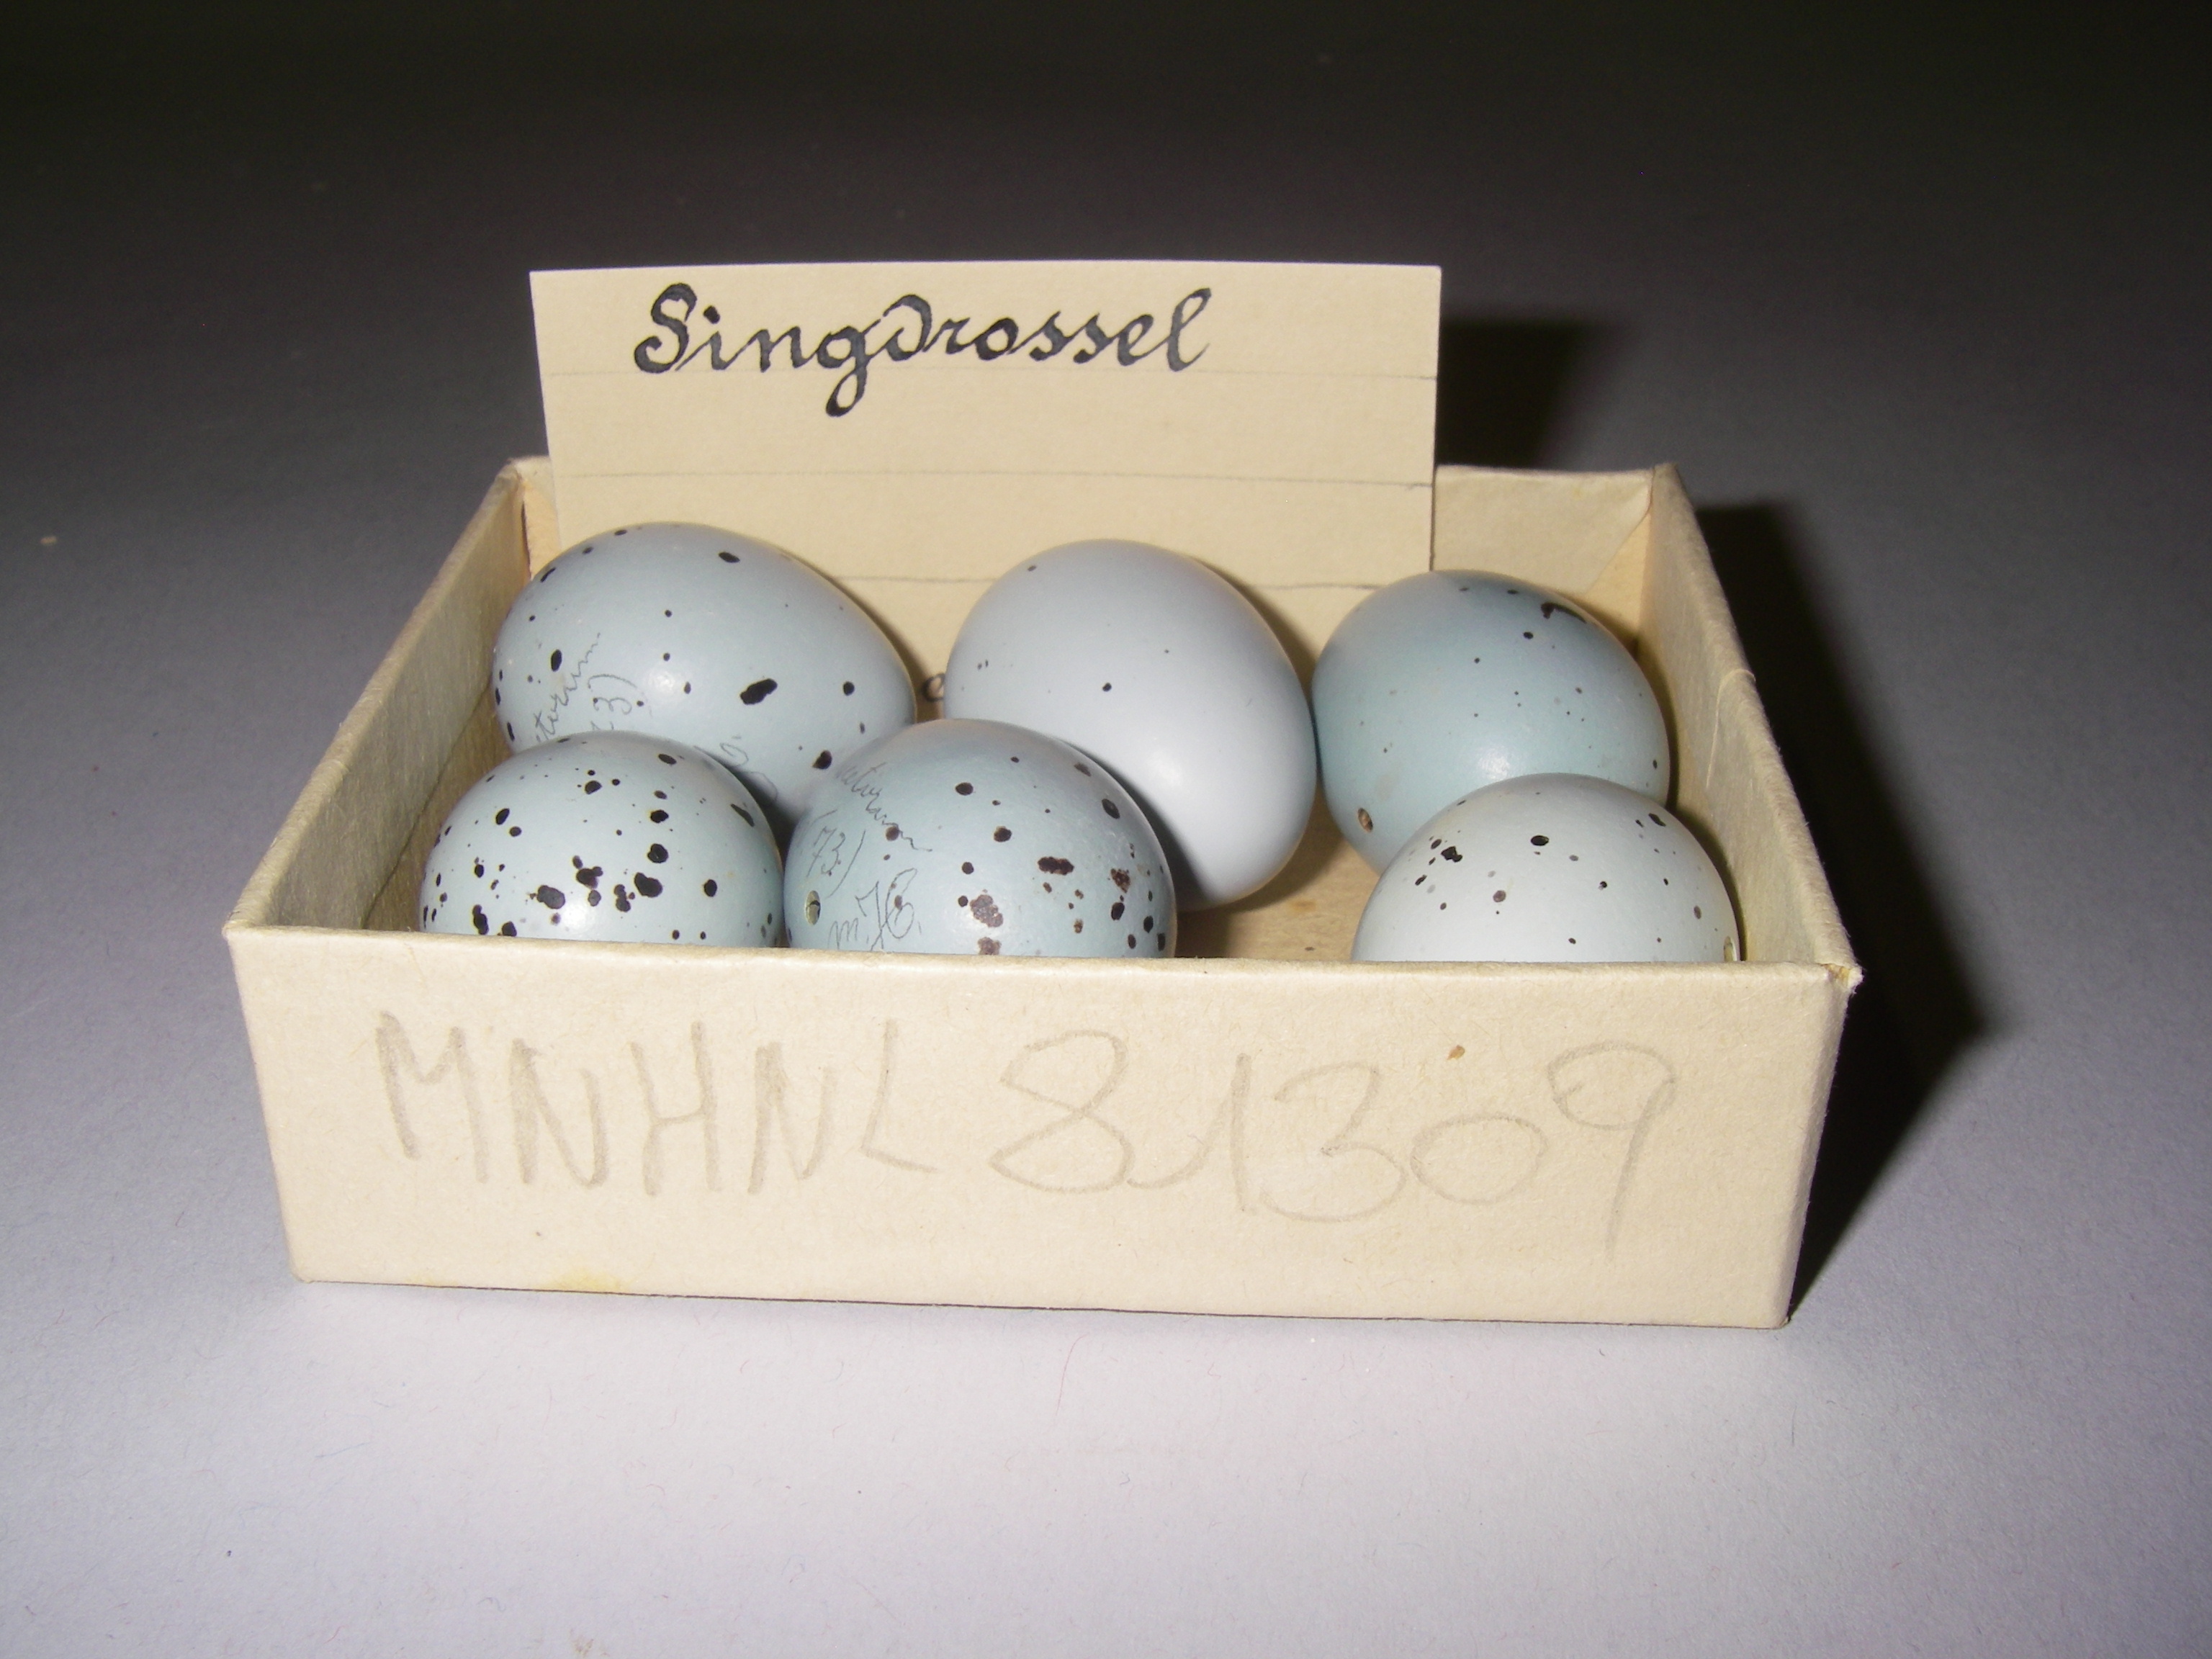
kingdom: Animalia
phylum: Chordata
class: Aves
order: Passeriformes
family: Turdidae
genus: Turdus
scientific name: Turdus philomelos
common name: Song thrush
